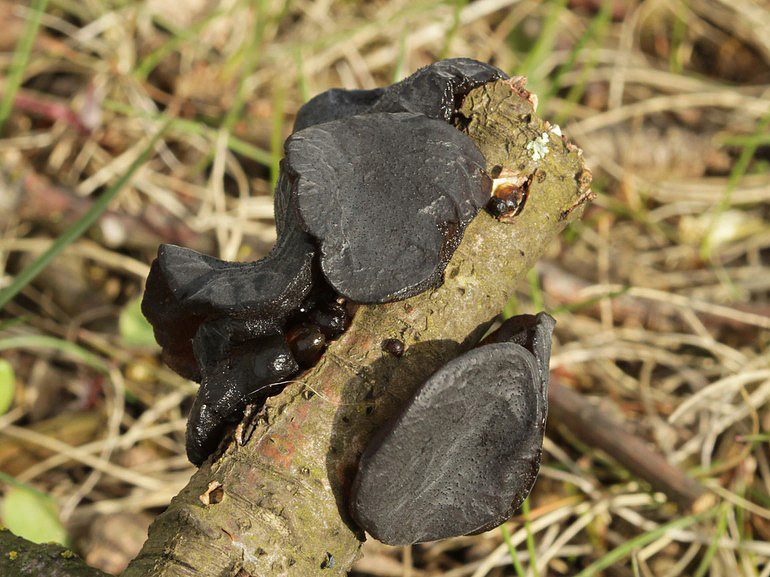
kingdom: Fungi
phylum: Basidiomycota
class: Agaricomycetes
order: Auriculariales
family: Auriculariaceae
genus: Exidia
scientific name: Exidia glandulosa
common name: ege-bævretop
